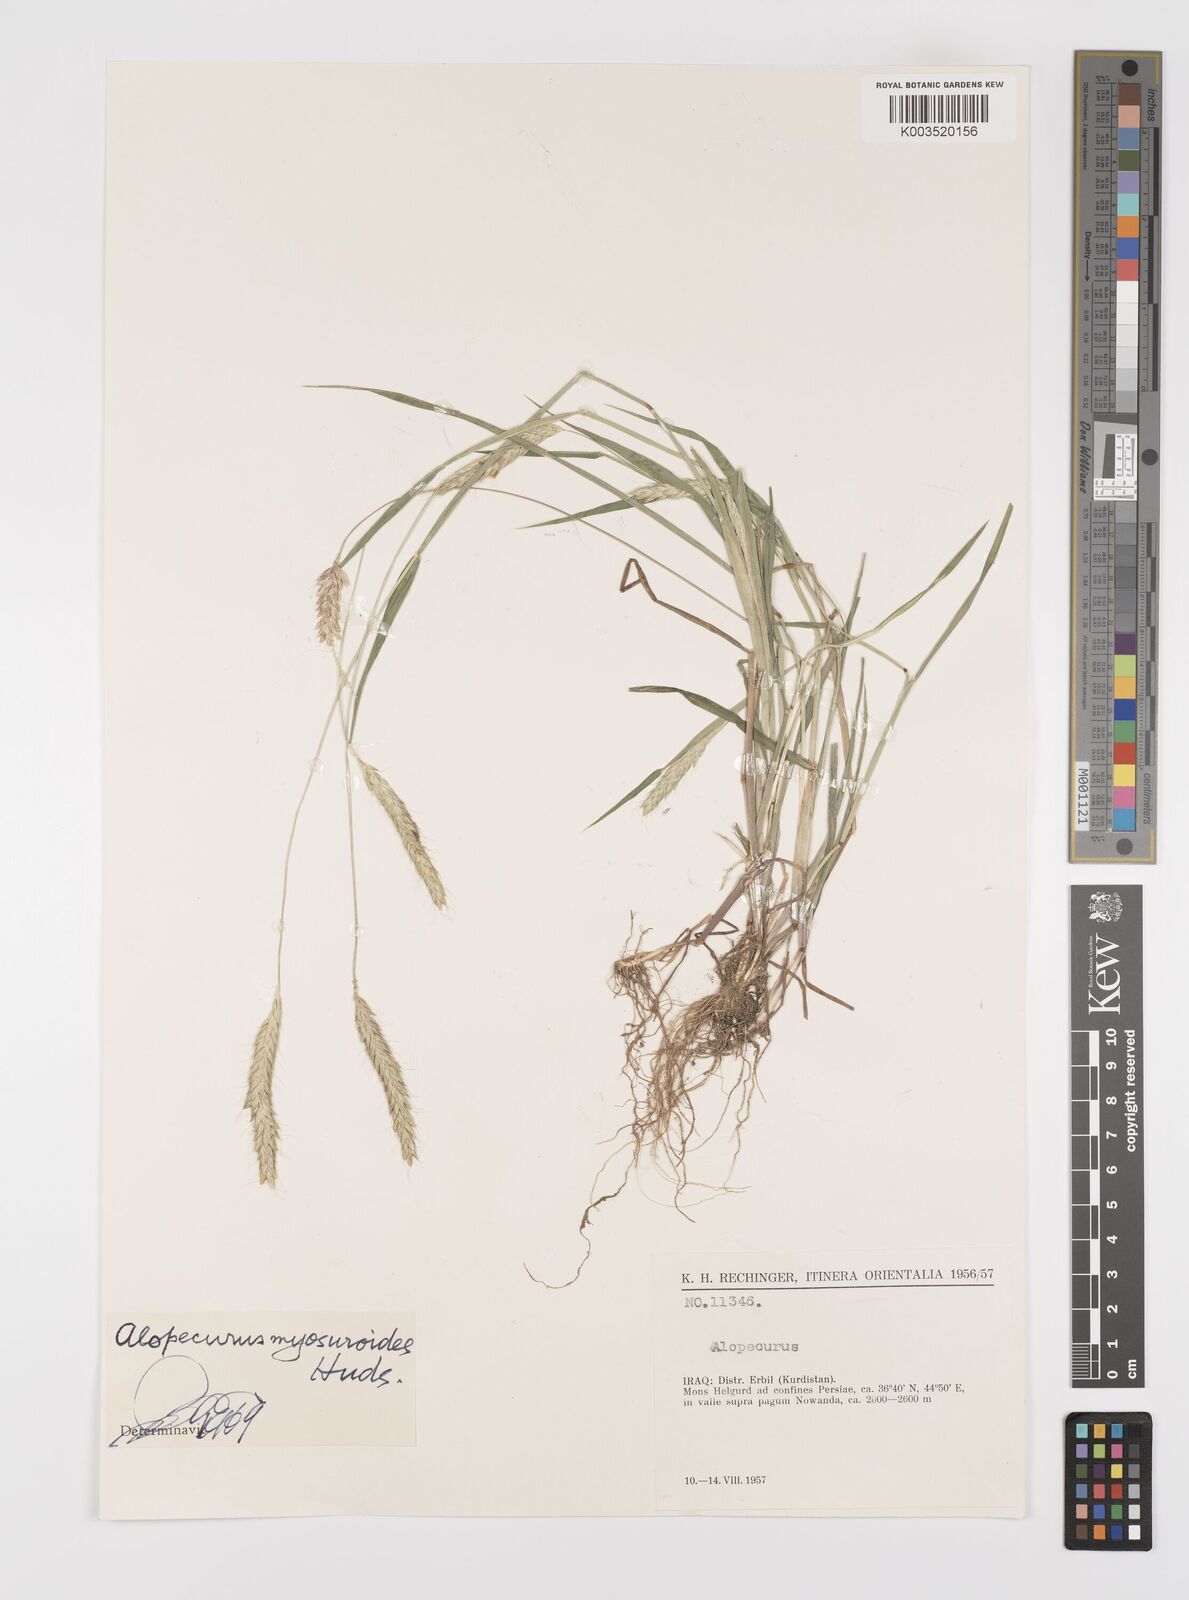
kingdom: Plantae
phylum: Tracheophyta
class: Liliopsida
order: Poales
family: Poaceae
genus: Alopecurus
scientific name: Alopecurus myosuroides
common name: Black-grass
